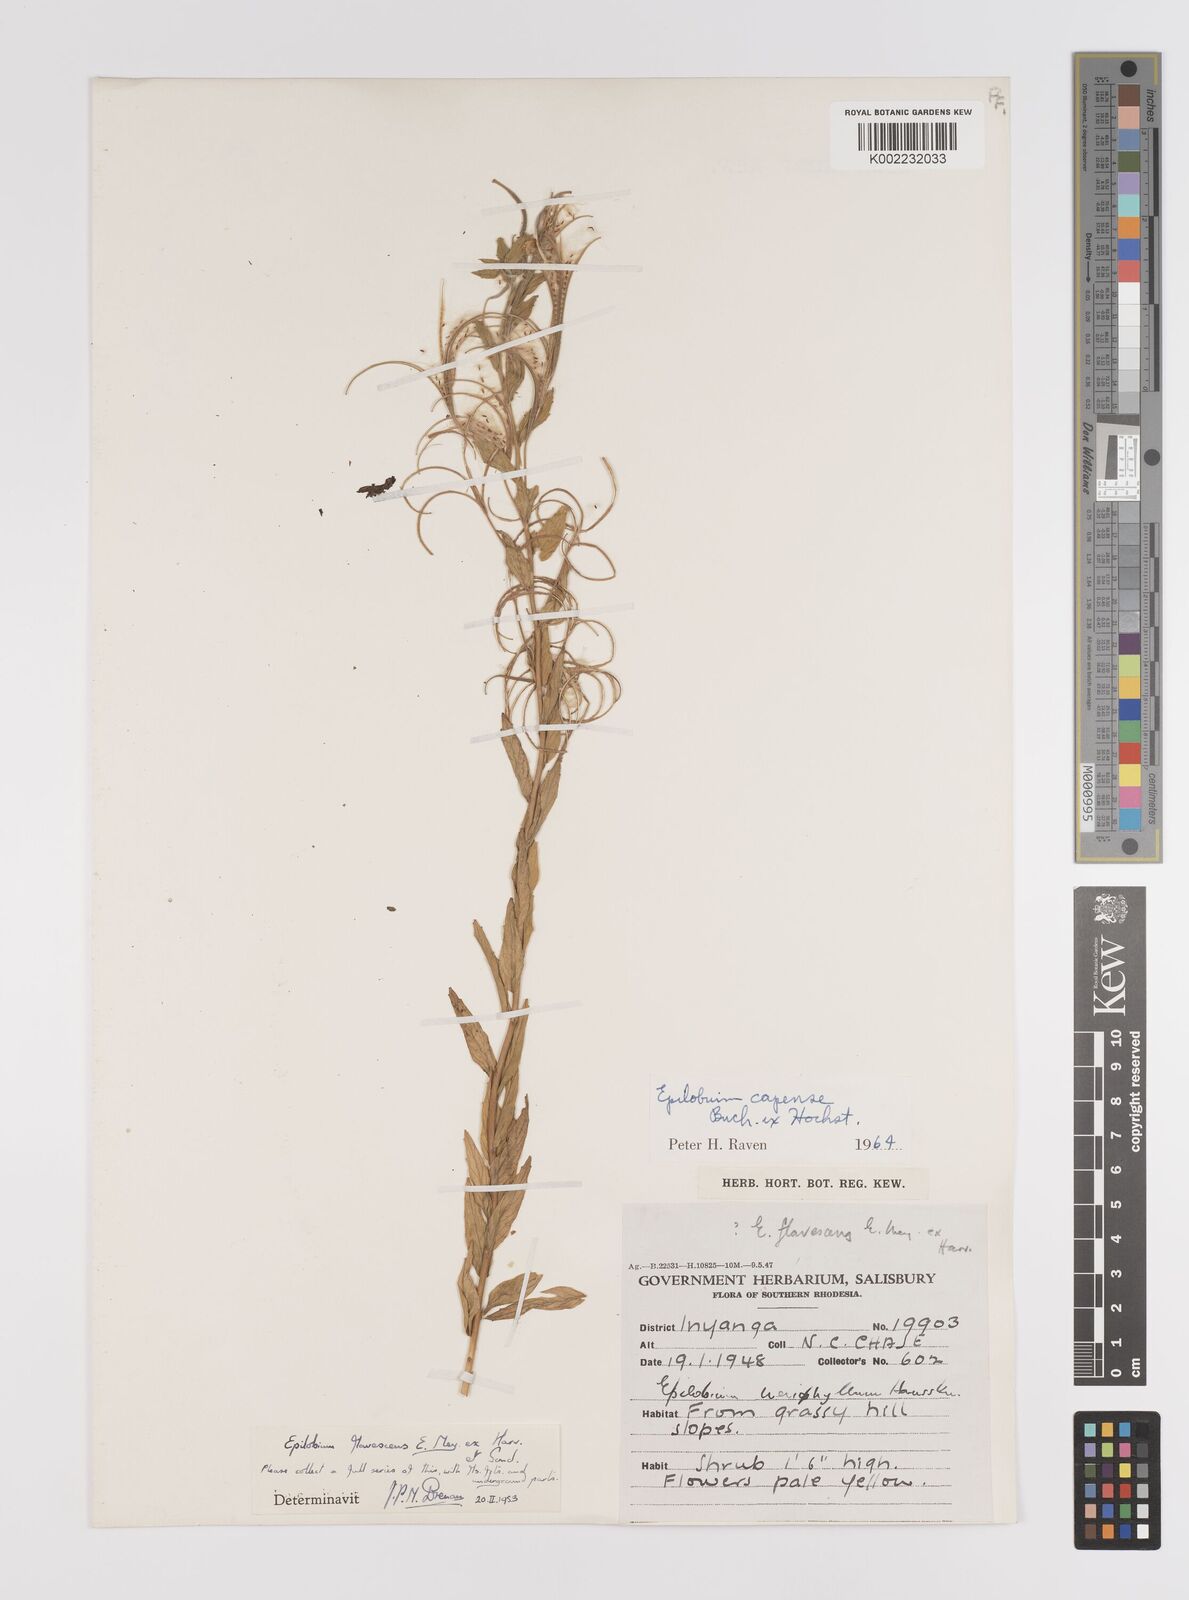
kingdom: Plantae
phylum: Tracheophyta
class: Magnoliopsida
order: Myrtales
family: Onagraceae
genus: Epilobium
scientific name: Epilobium capense
